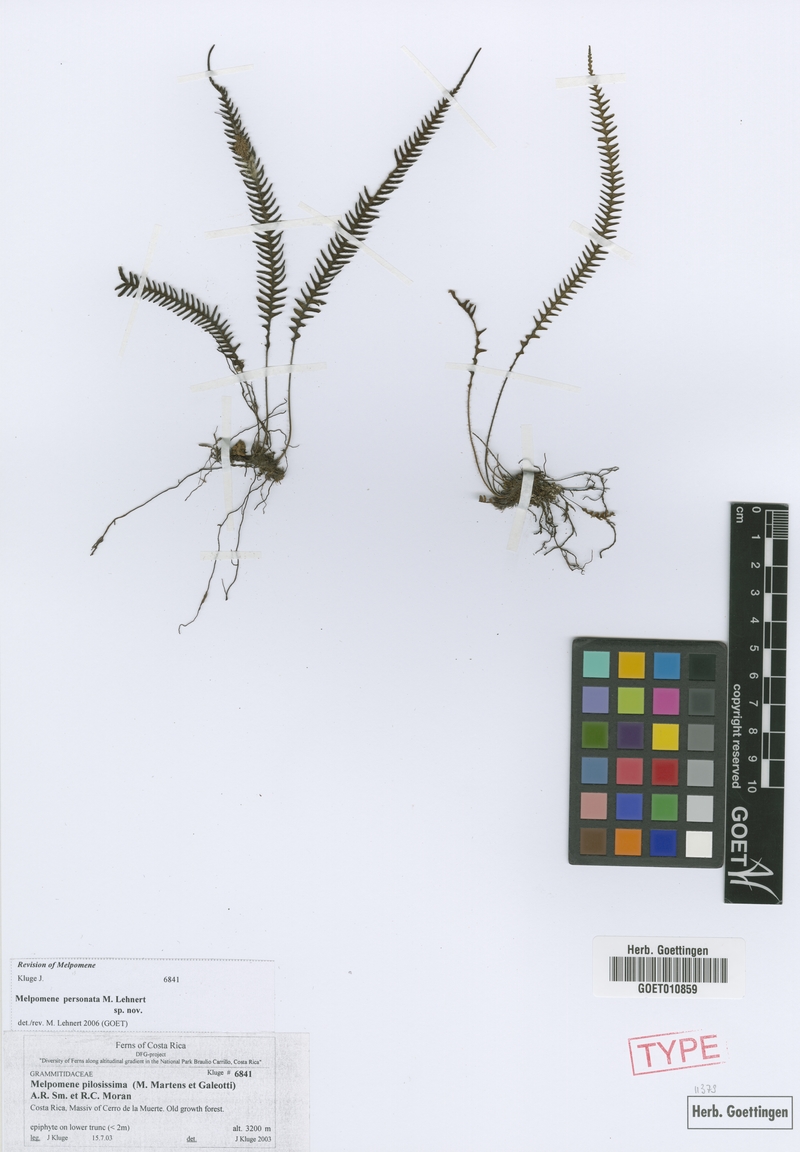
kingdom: Plantae
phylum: Tracheophyta
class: Polypodiopsida
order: Polypodiales
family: Polypodiaceae
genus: Melpomene
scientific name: Melpomene personata
